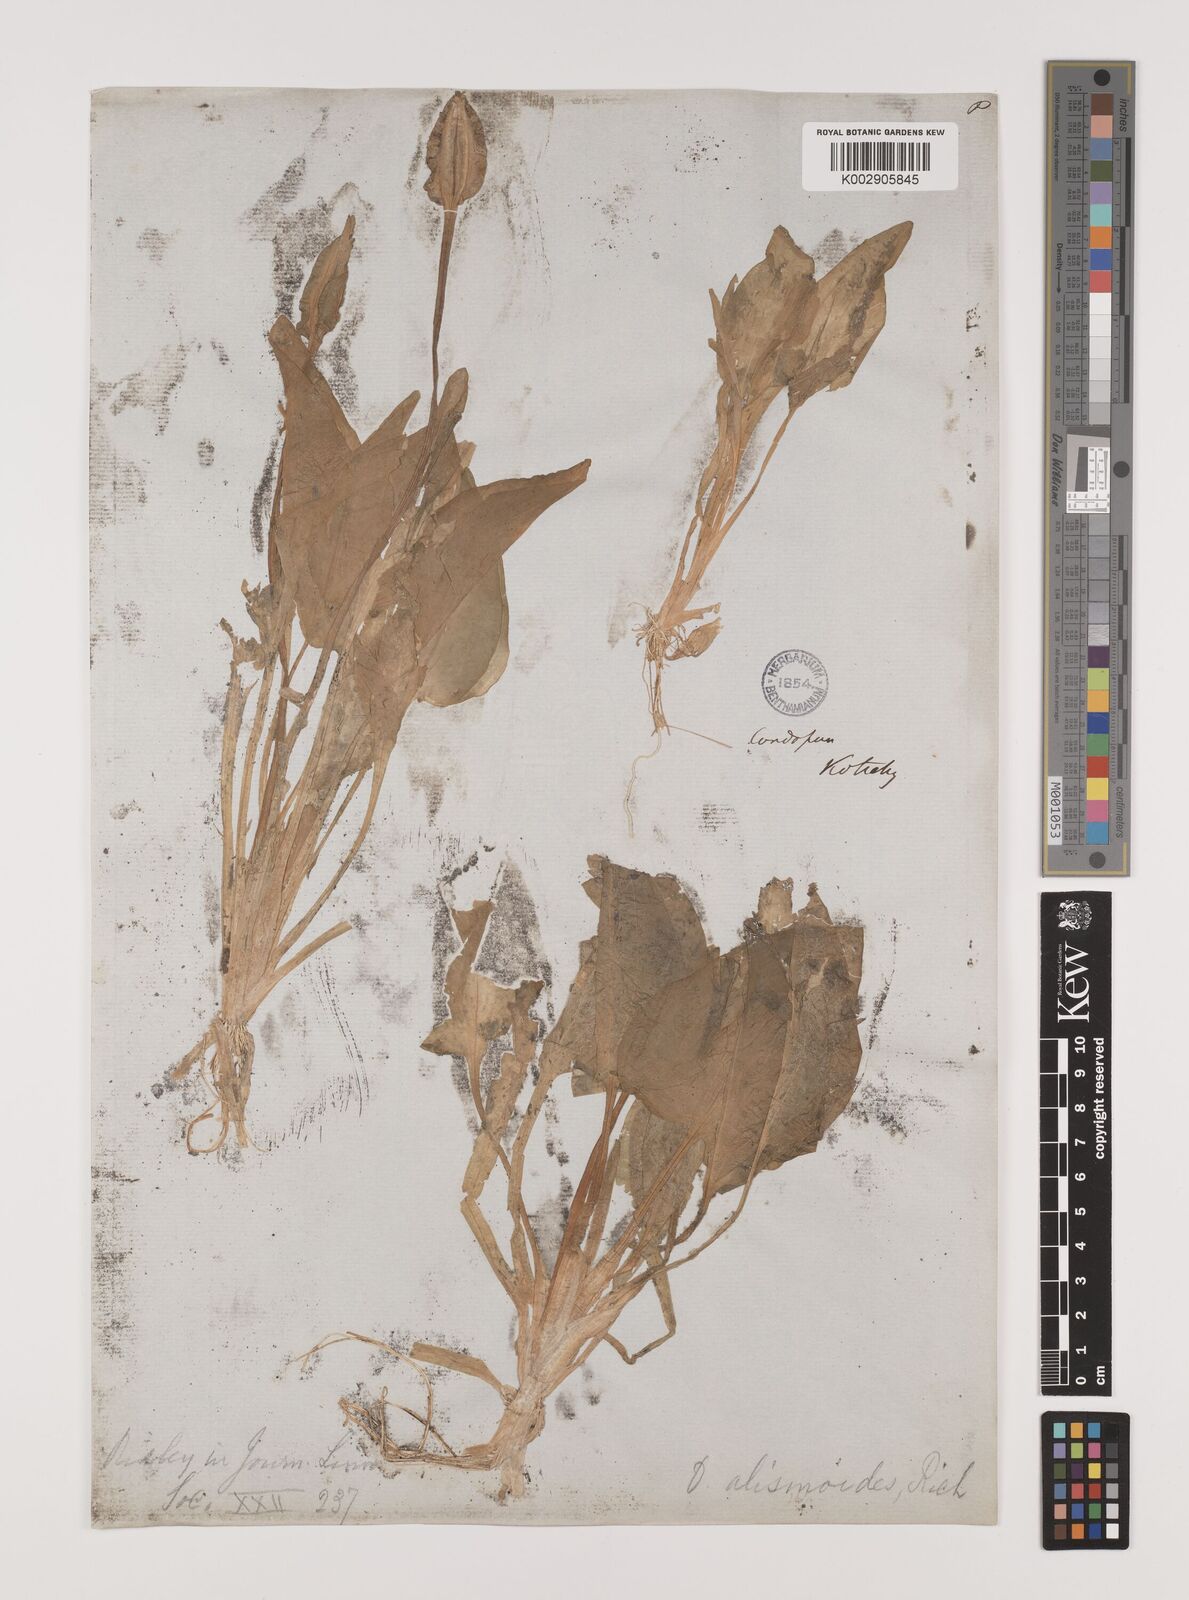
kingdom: Plantae
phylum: Tracheophyta
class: Liliopsida
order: Alismatales
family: Hydrocharitaceae
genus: Ottelia
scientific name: Ottelia alismoides
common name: Duck-lettuce
